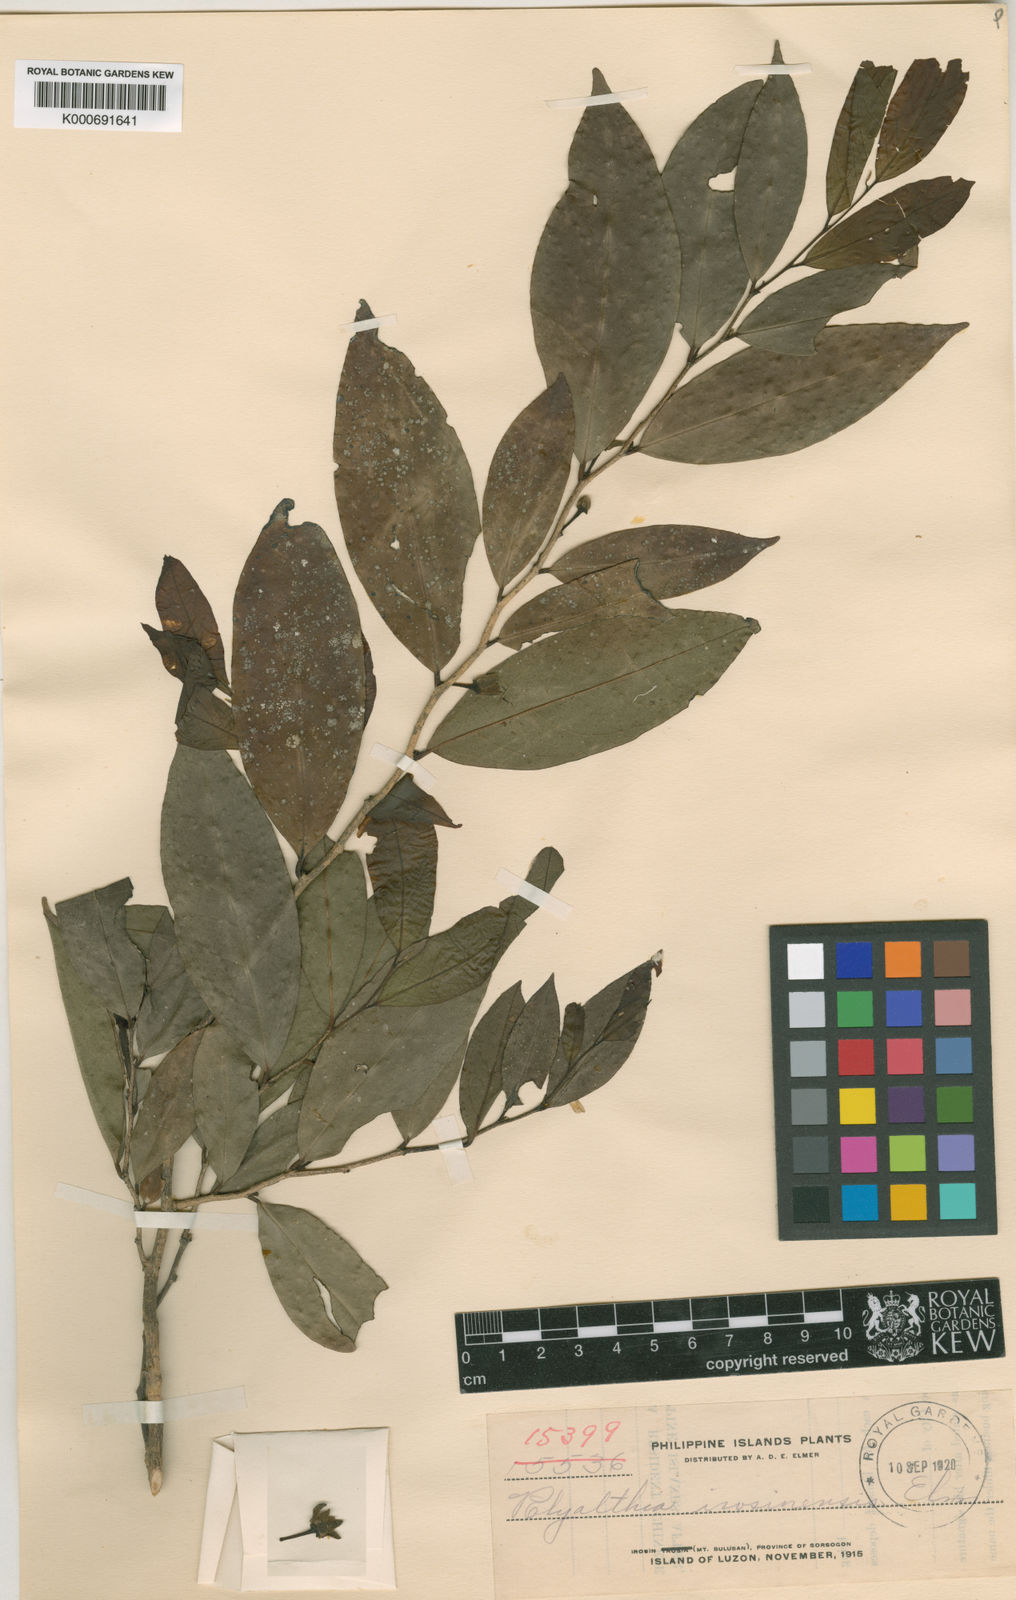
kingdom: Plantae
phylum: Tracheophyta
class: Magnoliopsida
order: Magnoliales
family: Annonaceae
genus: Polyalthia
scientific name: Polyalthia
